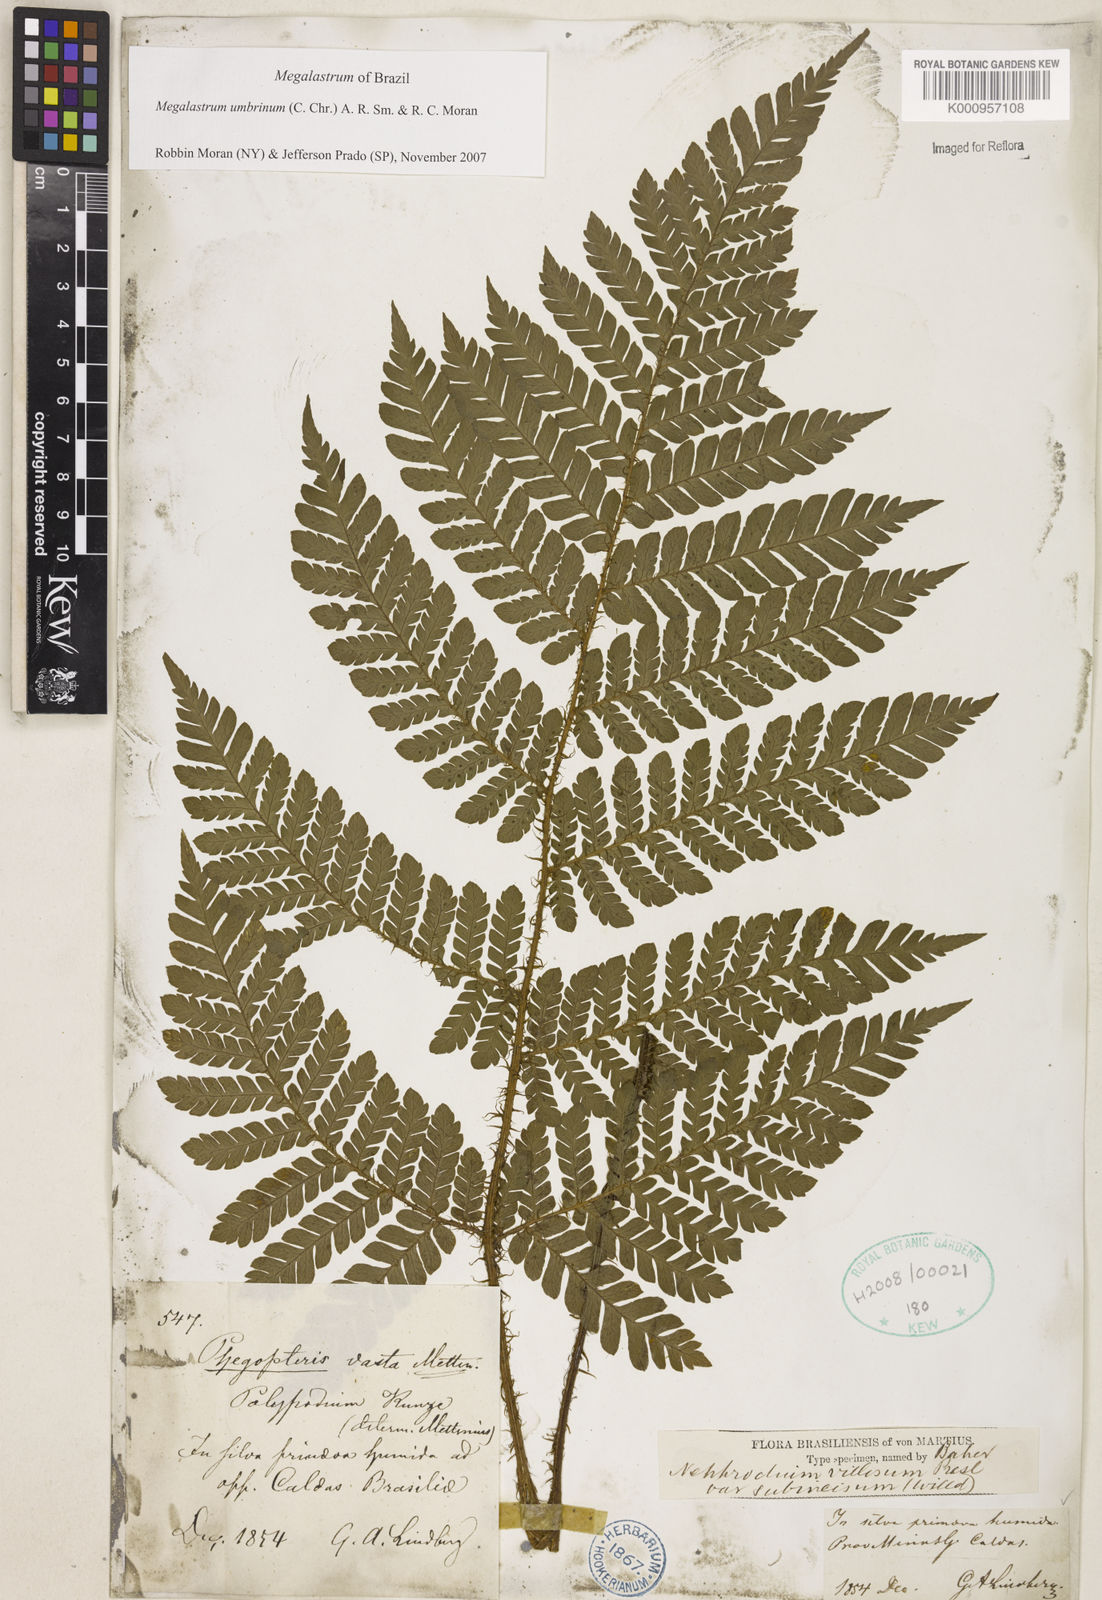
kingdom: Plantae
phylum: Tracheophyta
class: Polypodiopsida
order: Polypodiales
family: Dryopteridaceae
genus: Megalastrum
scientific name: Megalastrum umbrinum
